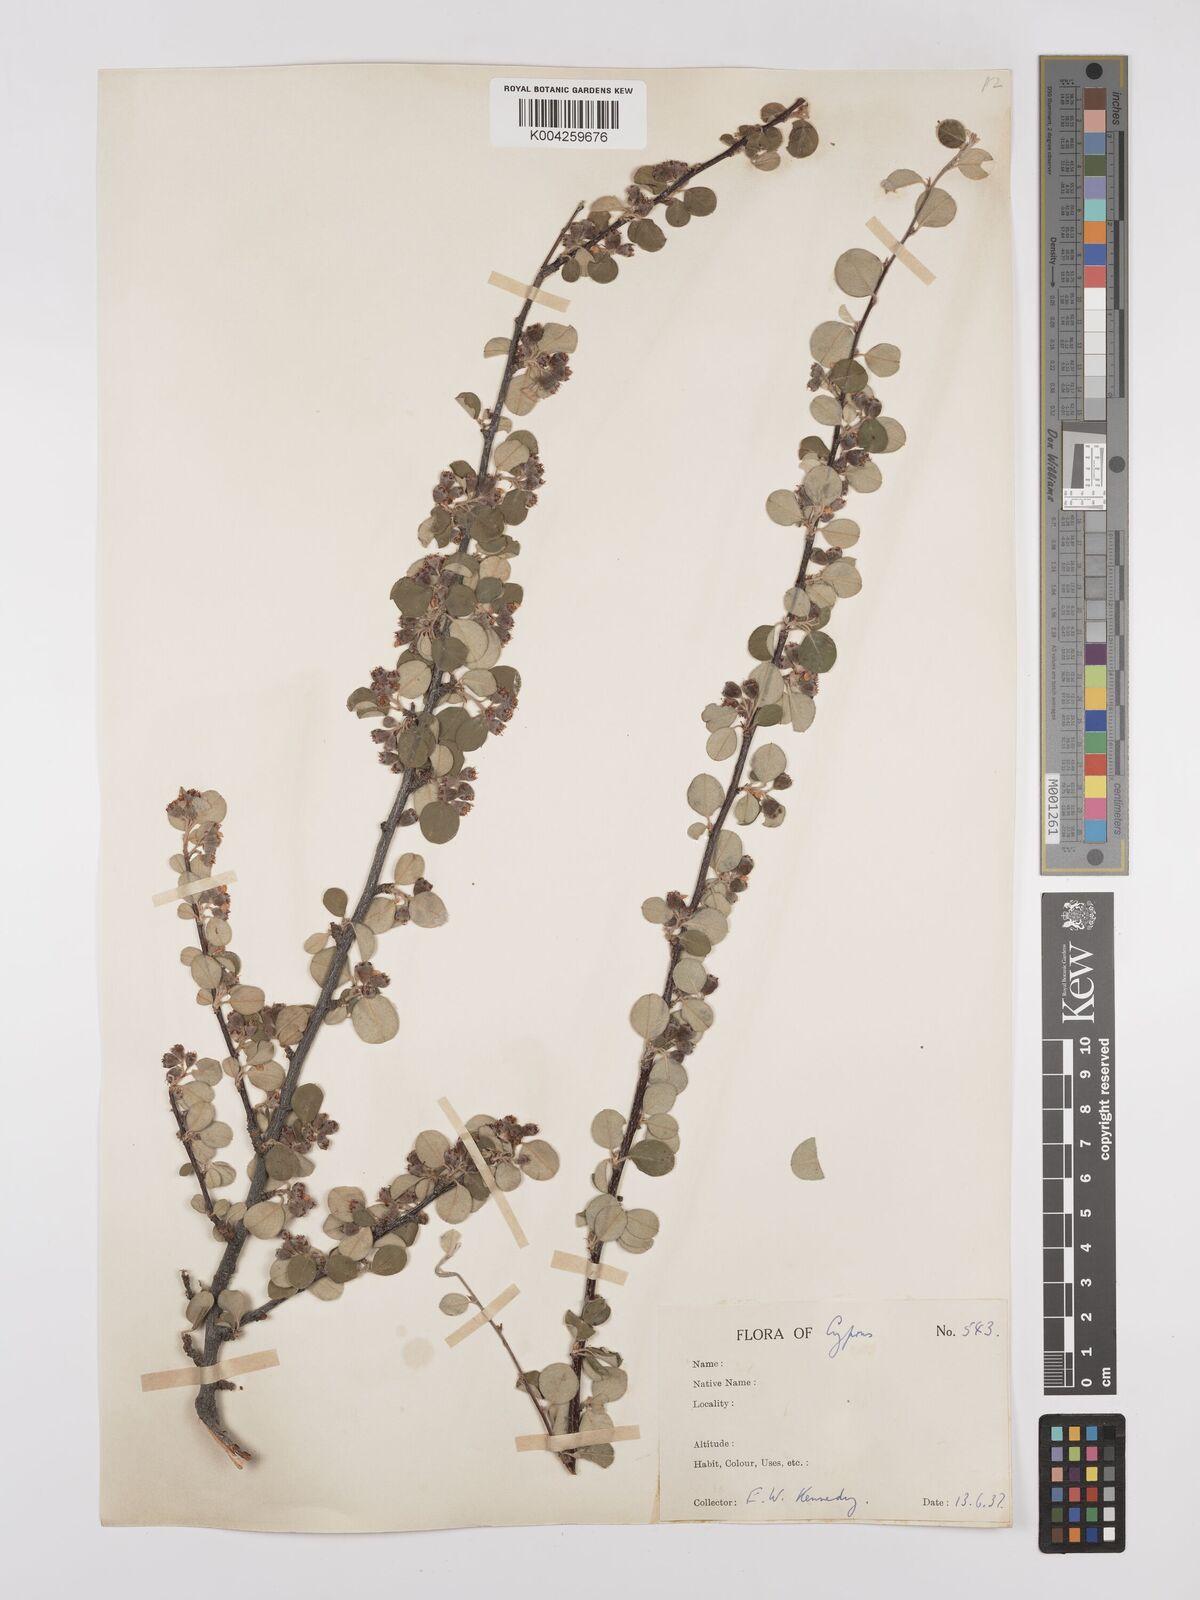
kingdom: Plantae
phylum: Tracheophyta
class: Magnoliopsida
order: Rosales
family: Rosaceae
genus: Cotoneaster
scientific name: Cotoneaster nummularius
